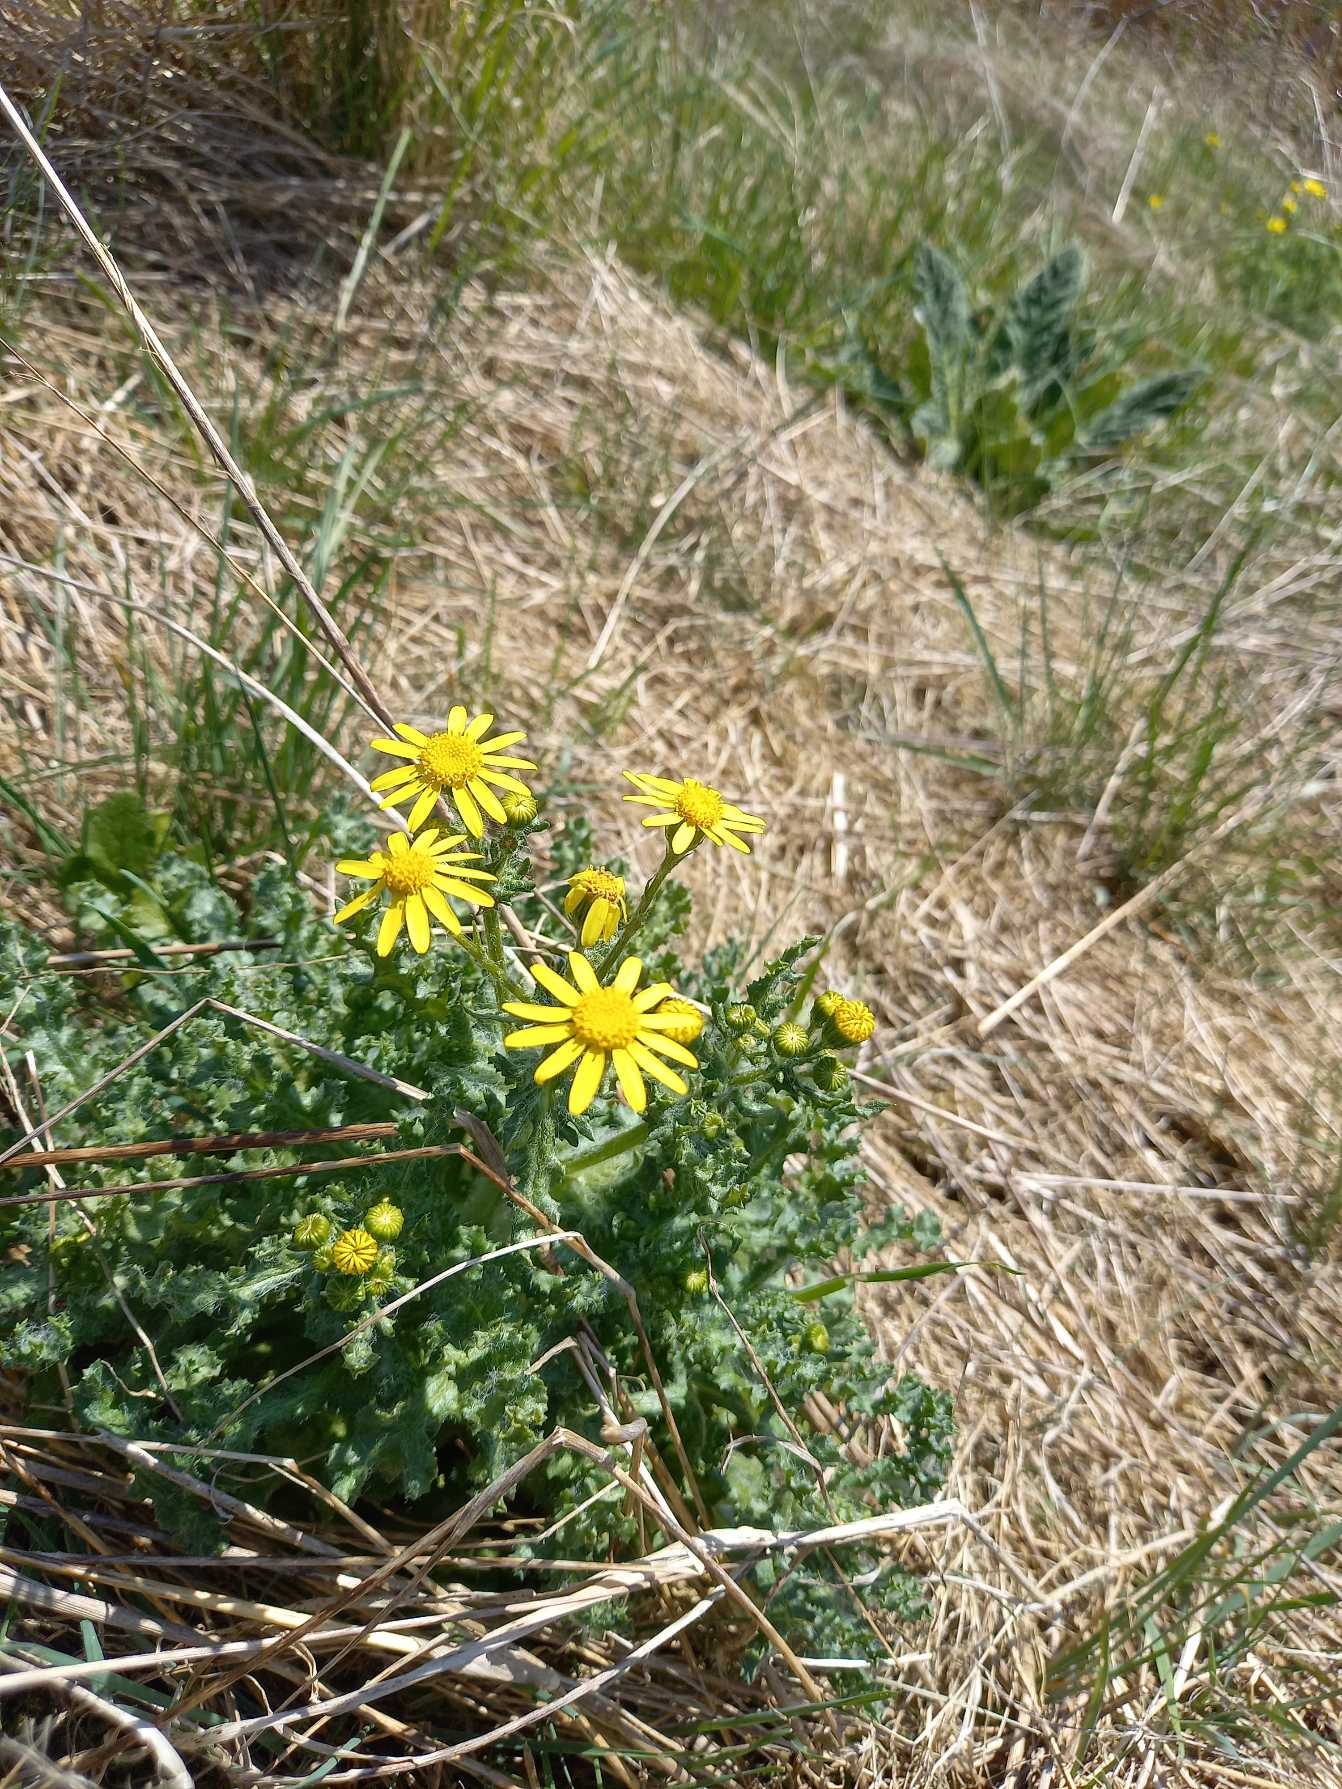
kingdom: Plantae
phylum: Tracheophyta
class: Magnoliopsida
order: Asterales
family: Asteraceae
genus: Senecio
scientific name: Senecio leucanthemifolius
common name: Vår-brandbæger
